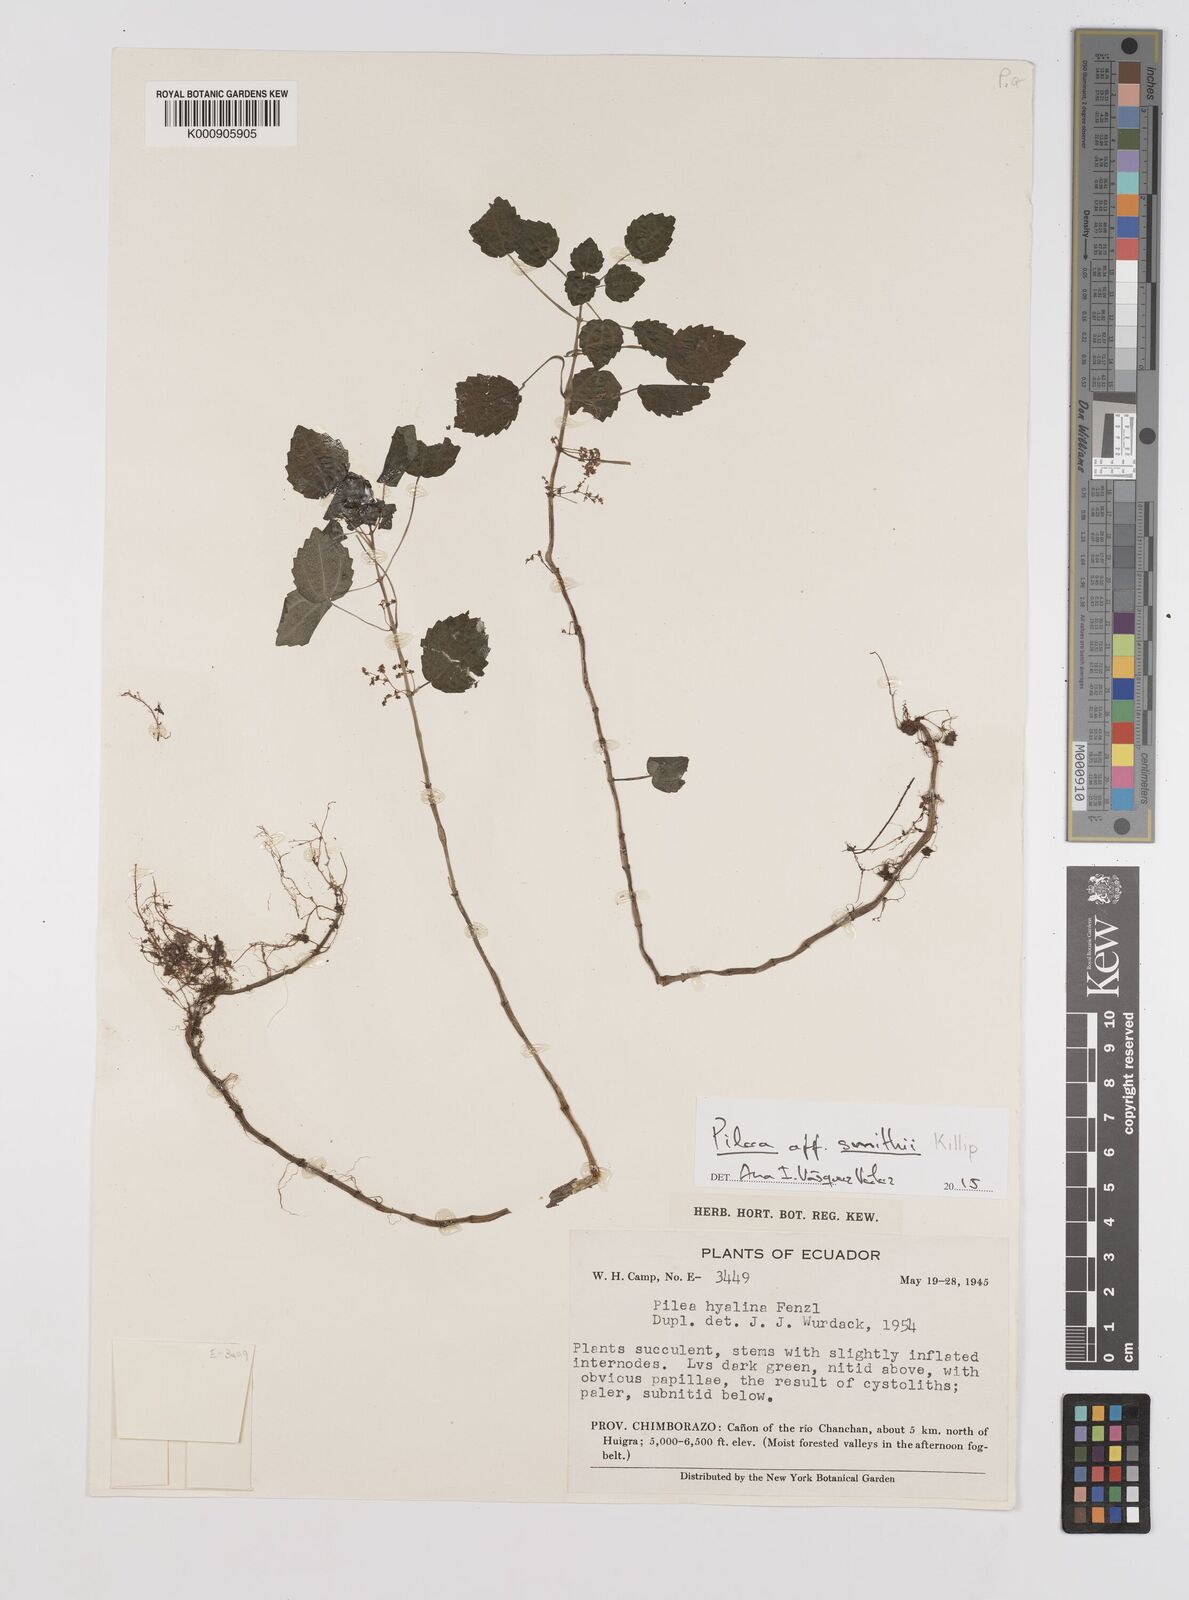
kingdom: Plantae
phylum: Tracheophyta
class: Magnoliopsida
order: Rosales
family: Urticaceae
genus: Pilea
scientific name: Pilea
